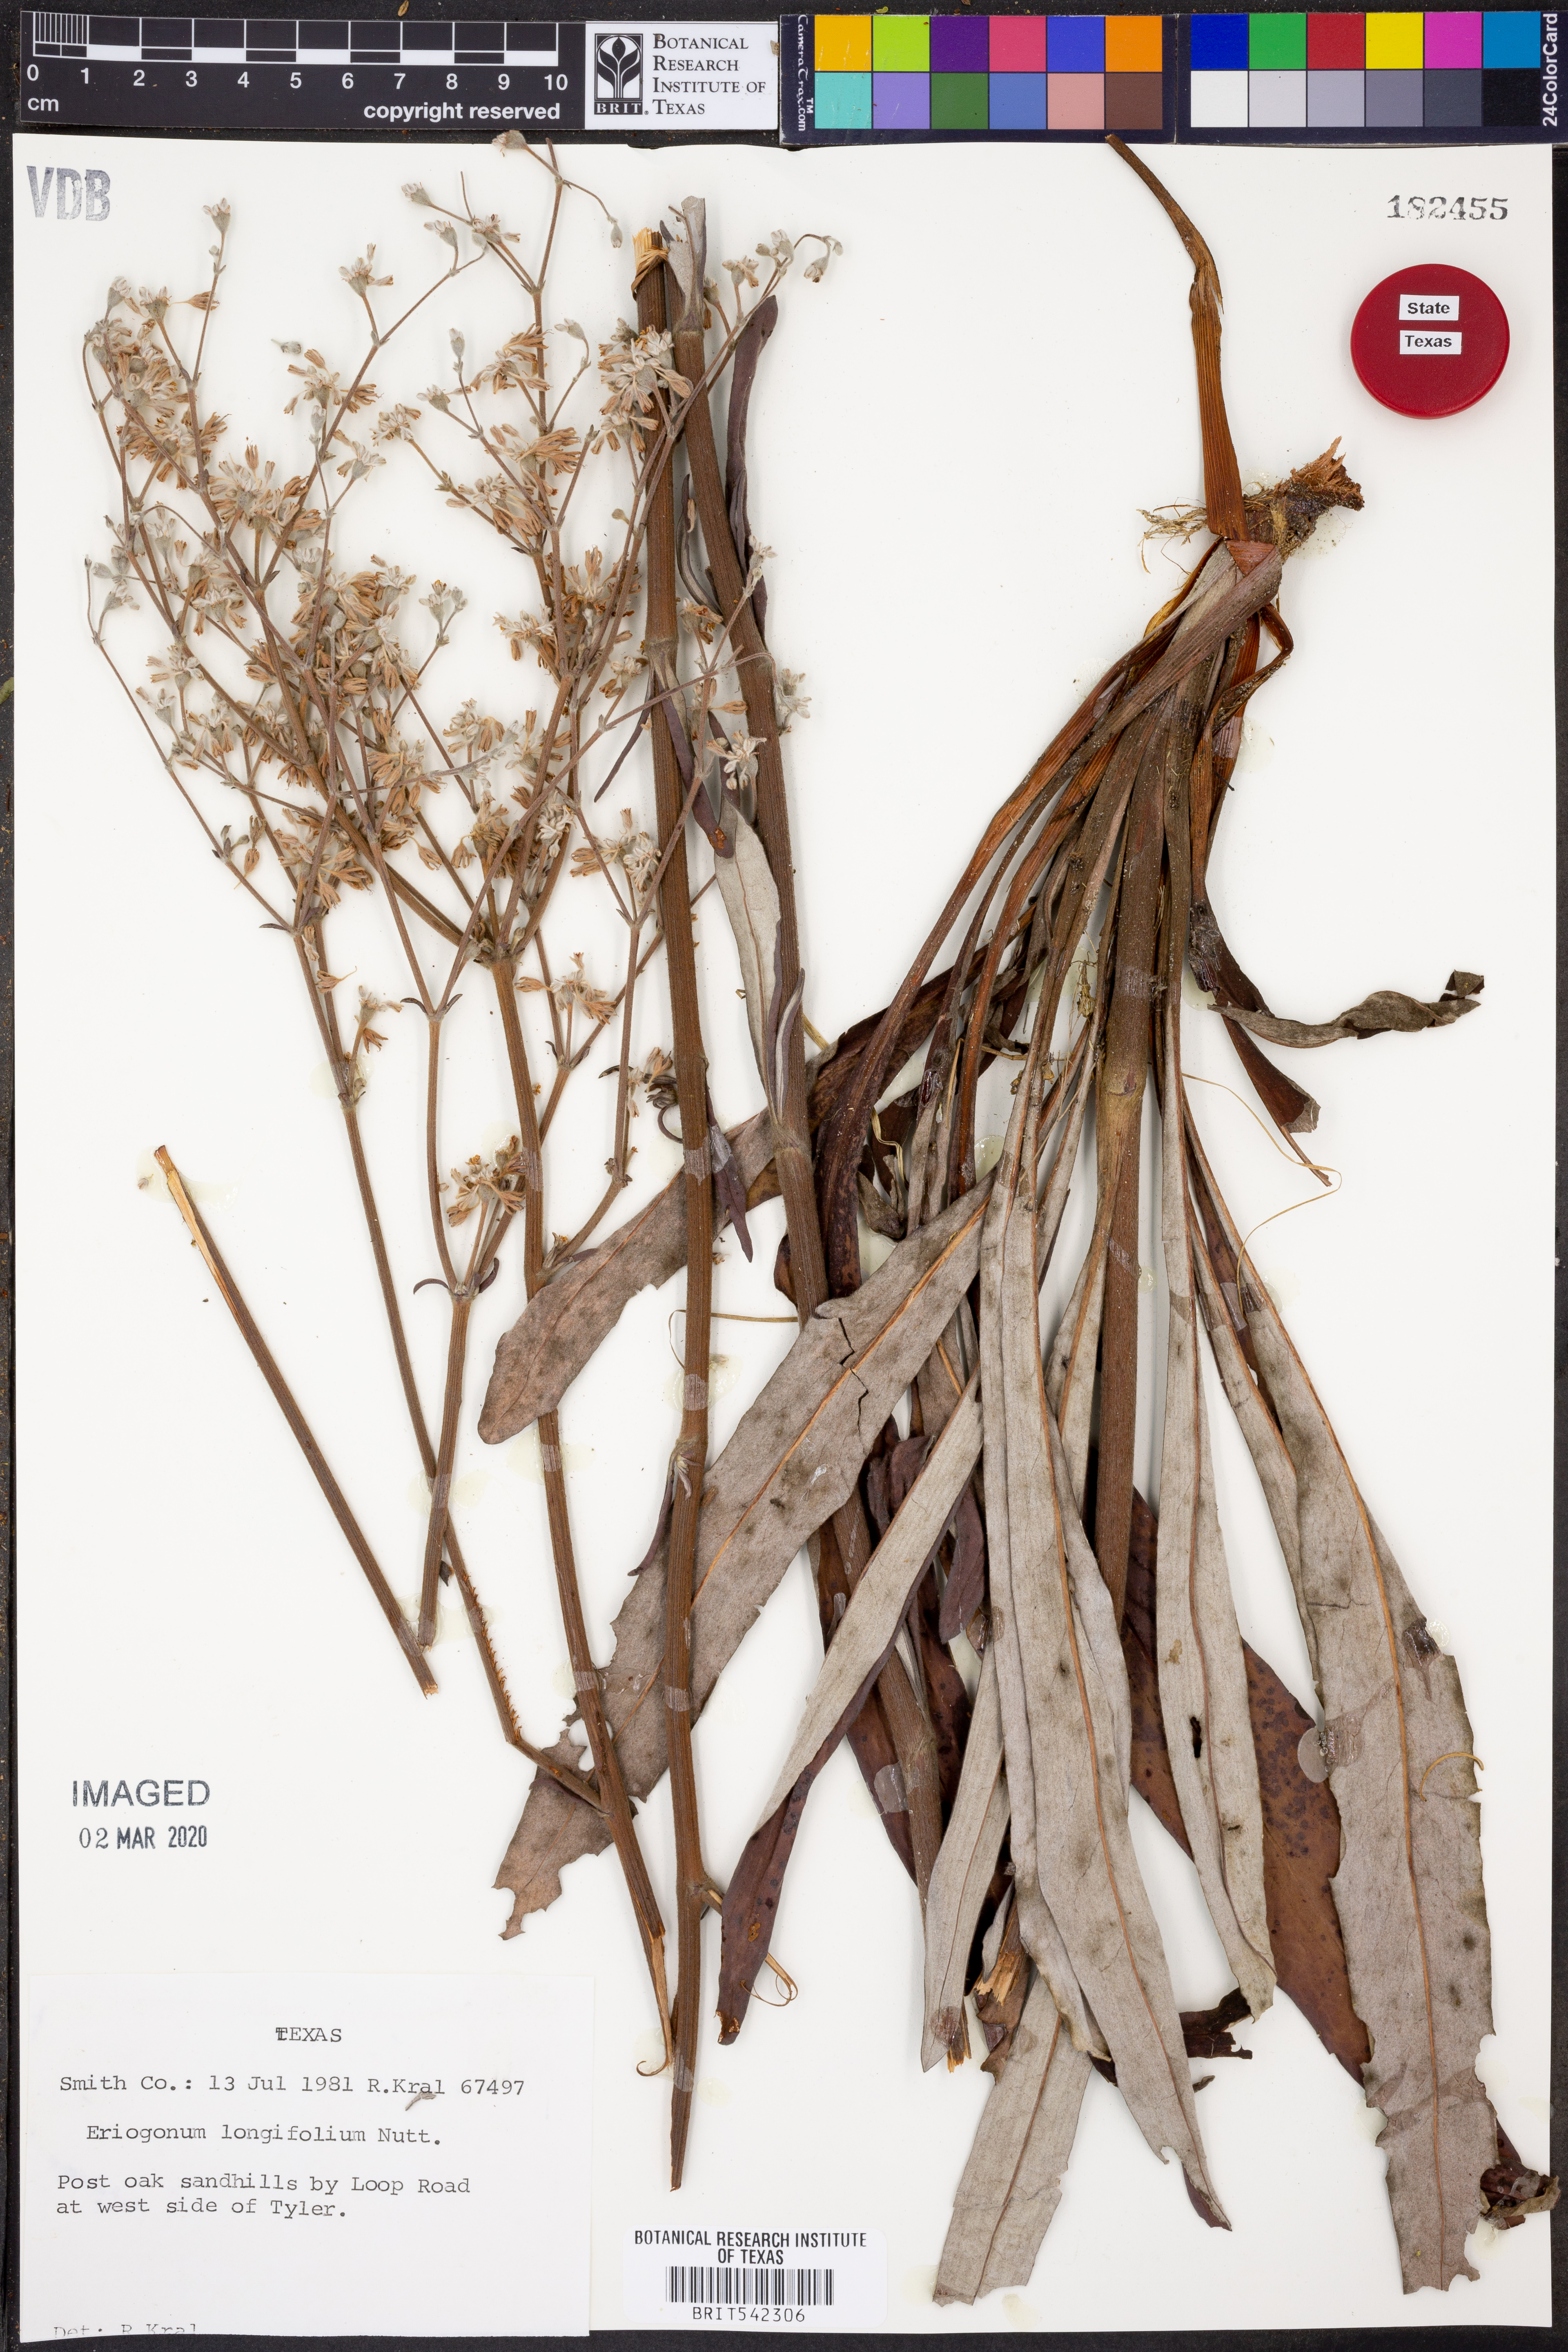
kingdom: Plantae
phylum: Tracheophyta
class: Magnoliopsida
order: Caryophyllales
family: Polygonaceae
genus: Eriogonum
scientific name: Eriogonum longifolium
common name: Longleaf wild buckwheat
